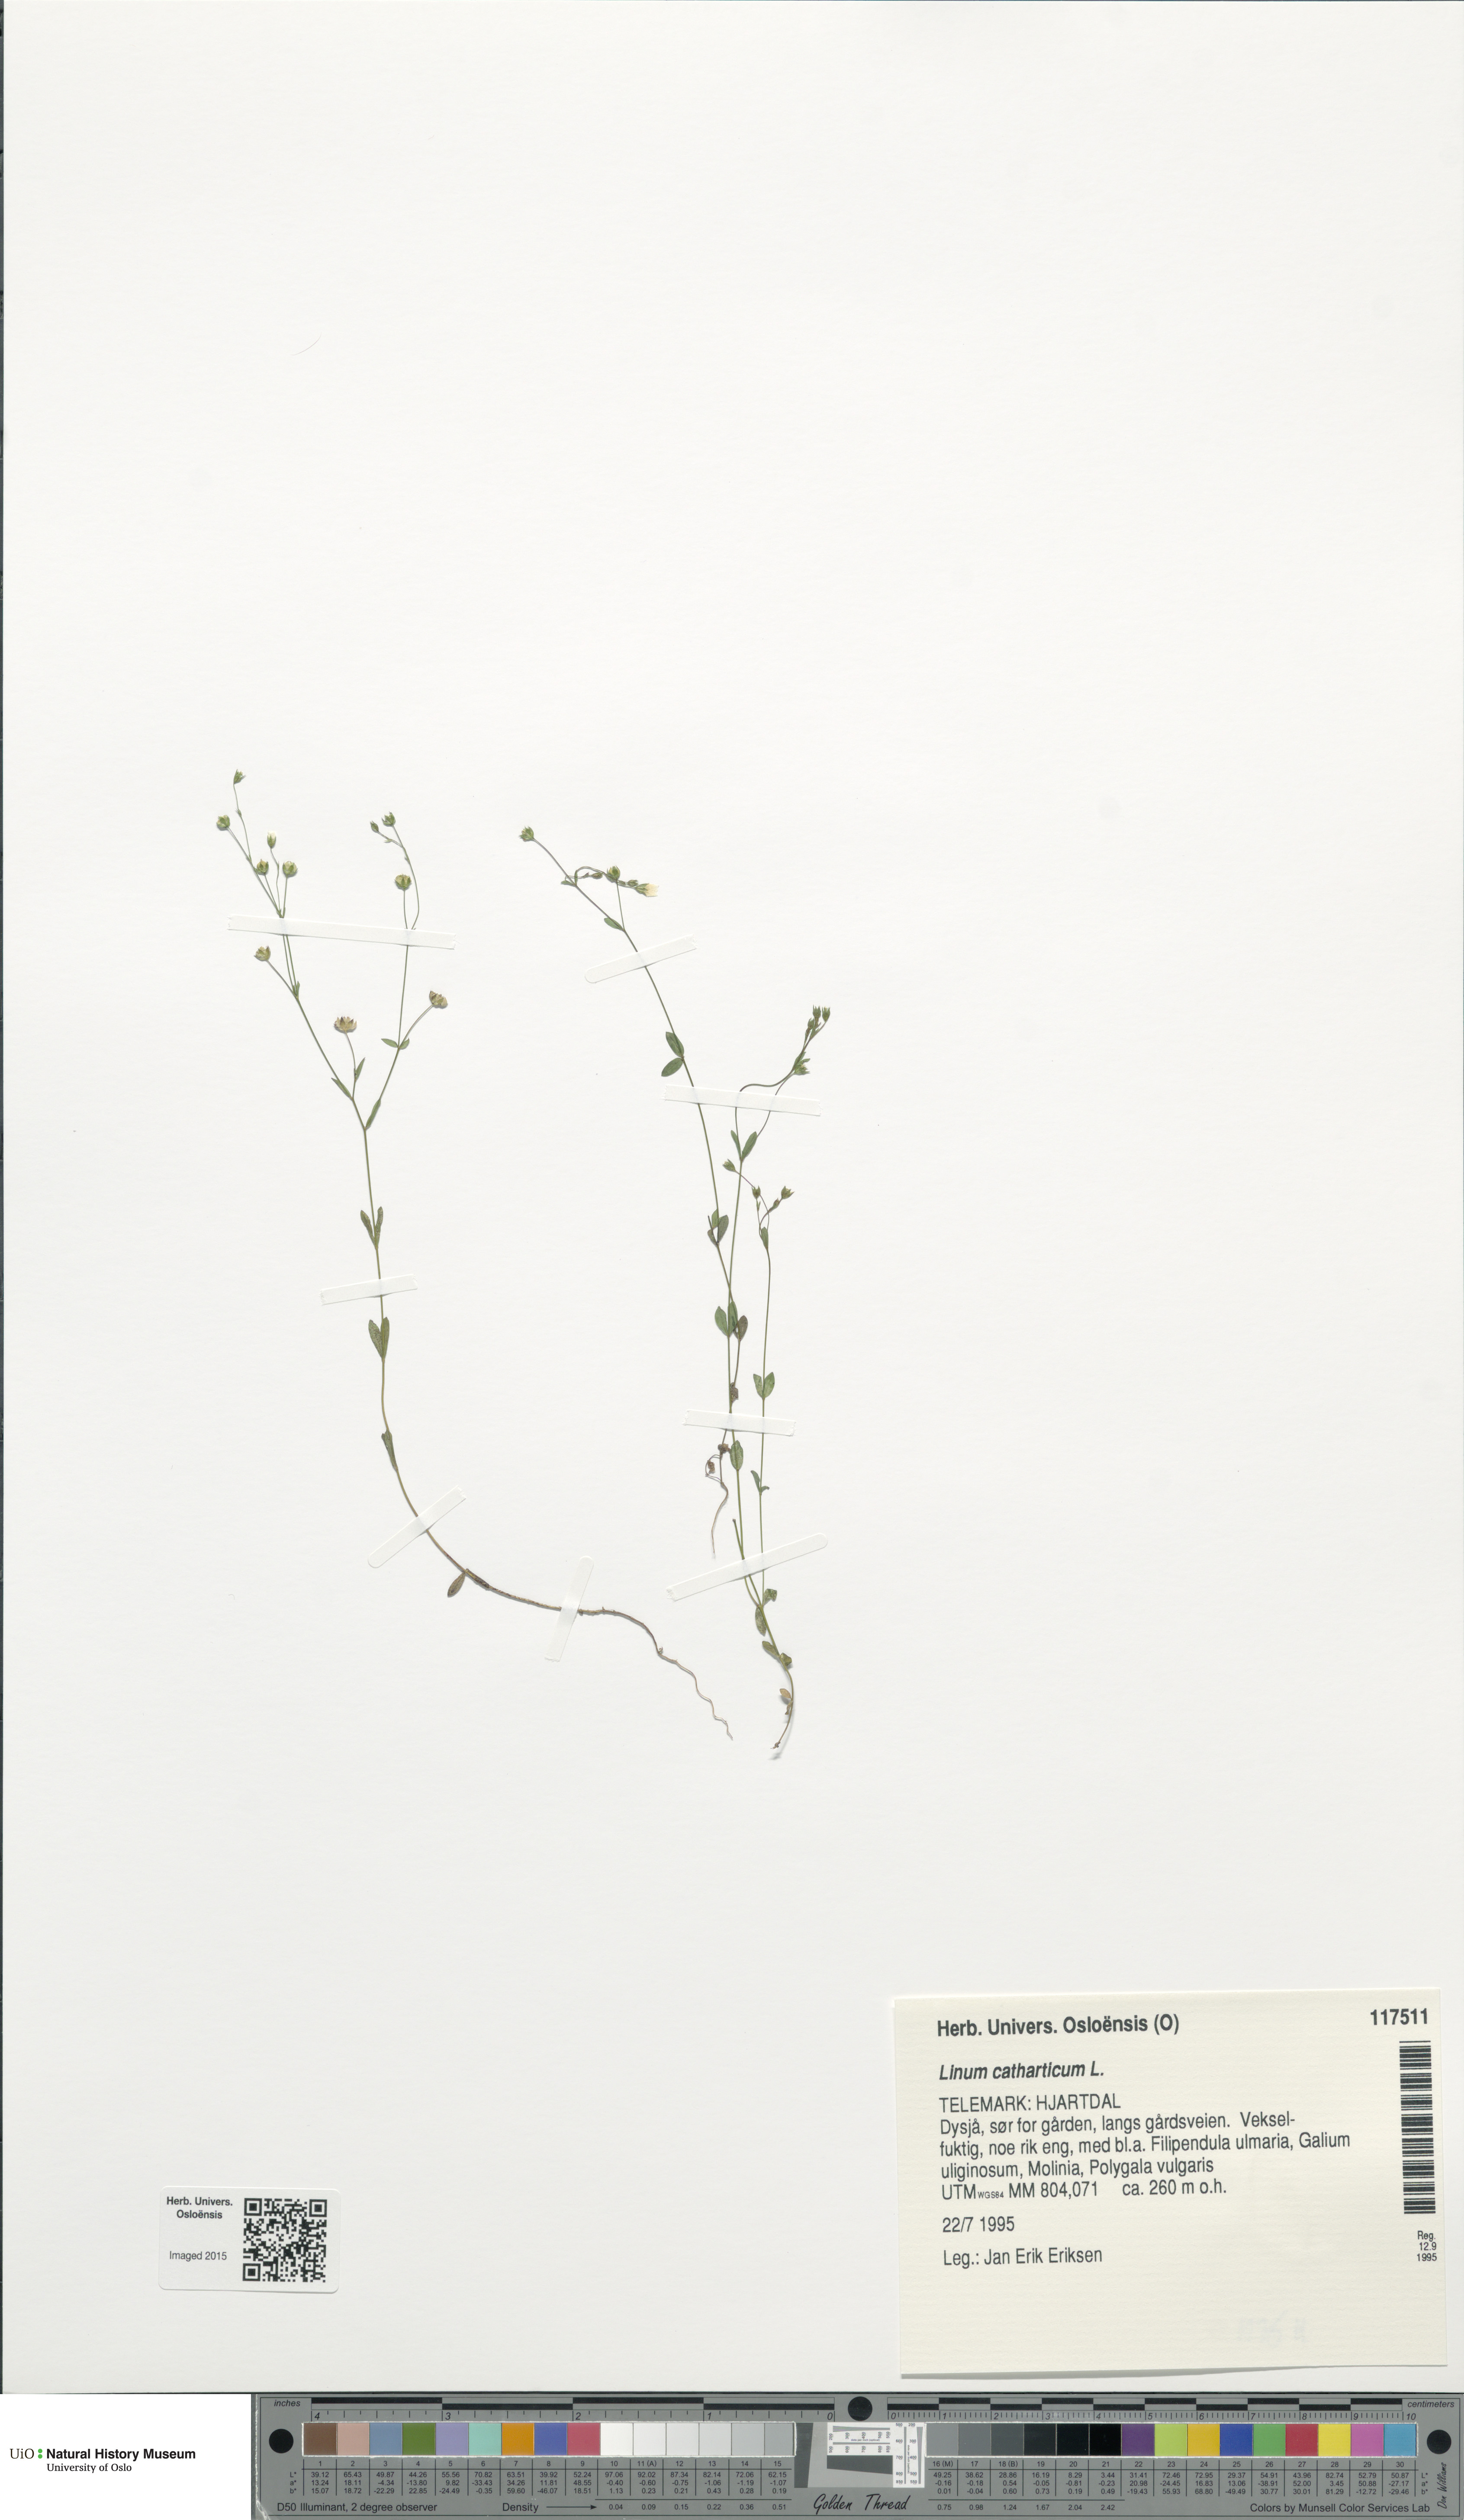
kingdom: Plantae
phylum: Tracheophyta
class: Magnoliopsida
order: Malpighiales
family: Linaceae
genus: Linum
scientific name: Linum catharticum
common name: Fairy flax
